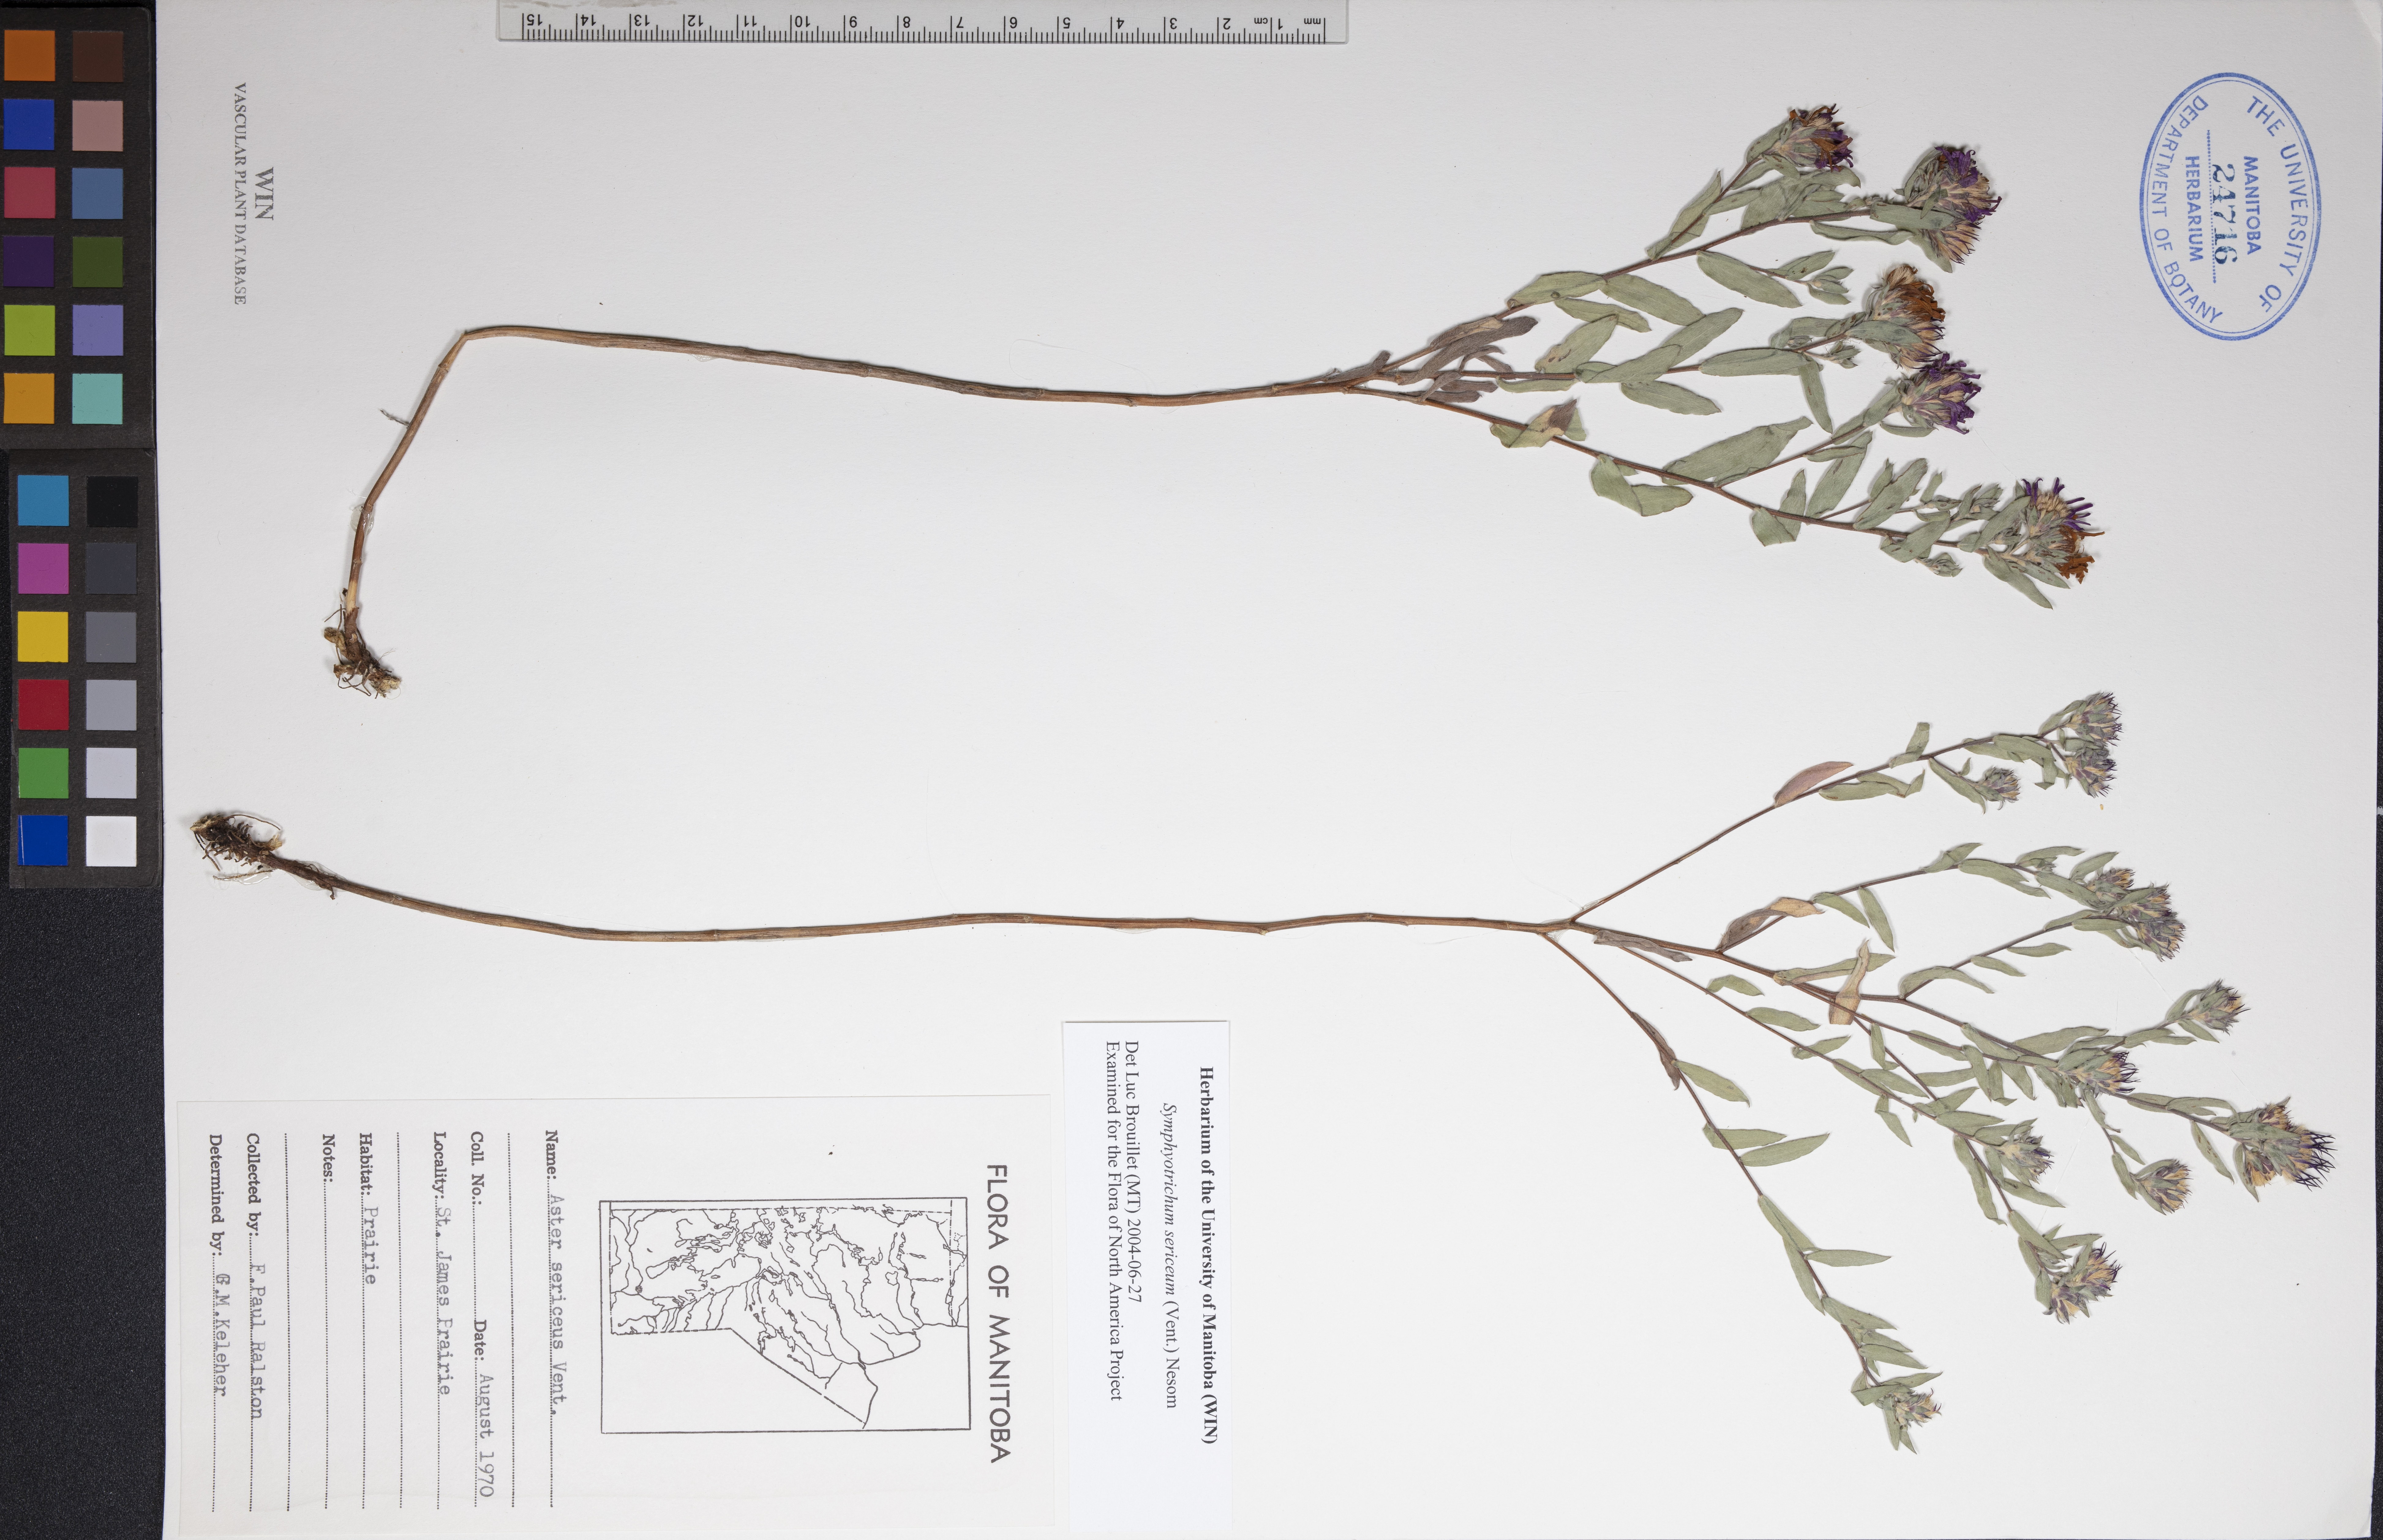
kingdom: Plantae
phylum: Tracheophyta
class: Magnoliopsida
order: Asterales
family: Asteraceae
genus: Symphyotrichum
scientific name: Symphyotrichum sericeum
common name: Silky aster
